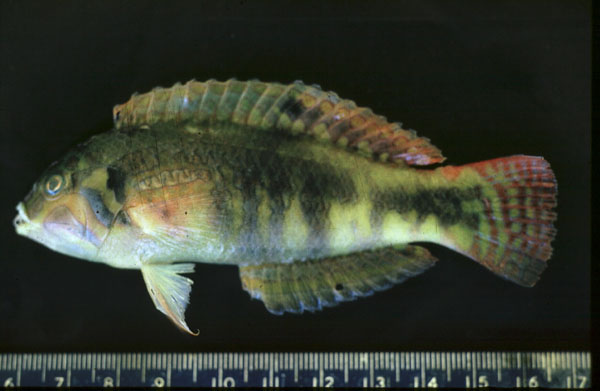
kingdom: Animalia
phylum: Chordata
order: Perciformes
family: Labridae
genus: Halichoeres
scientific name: Halichoeres nebulosus
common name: Clouded wrasse
